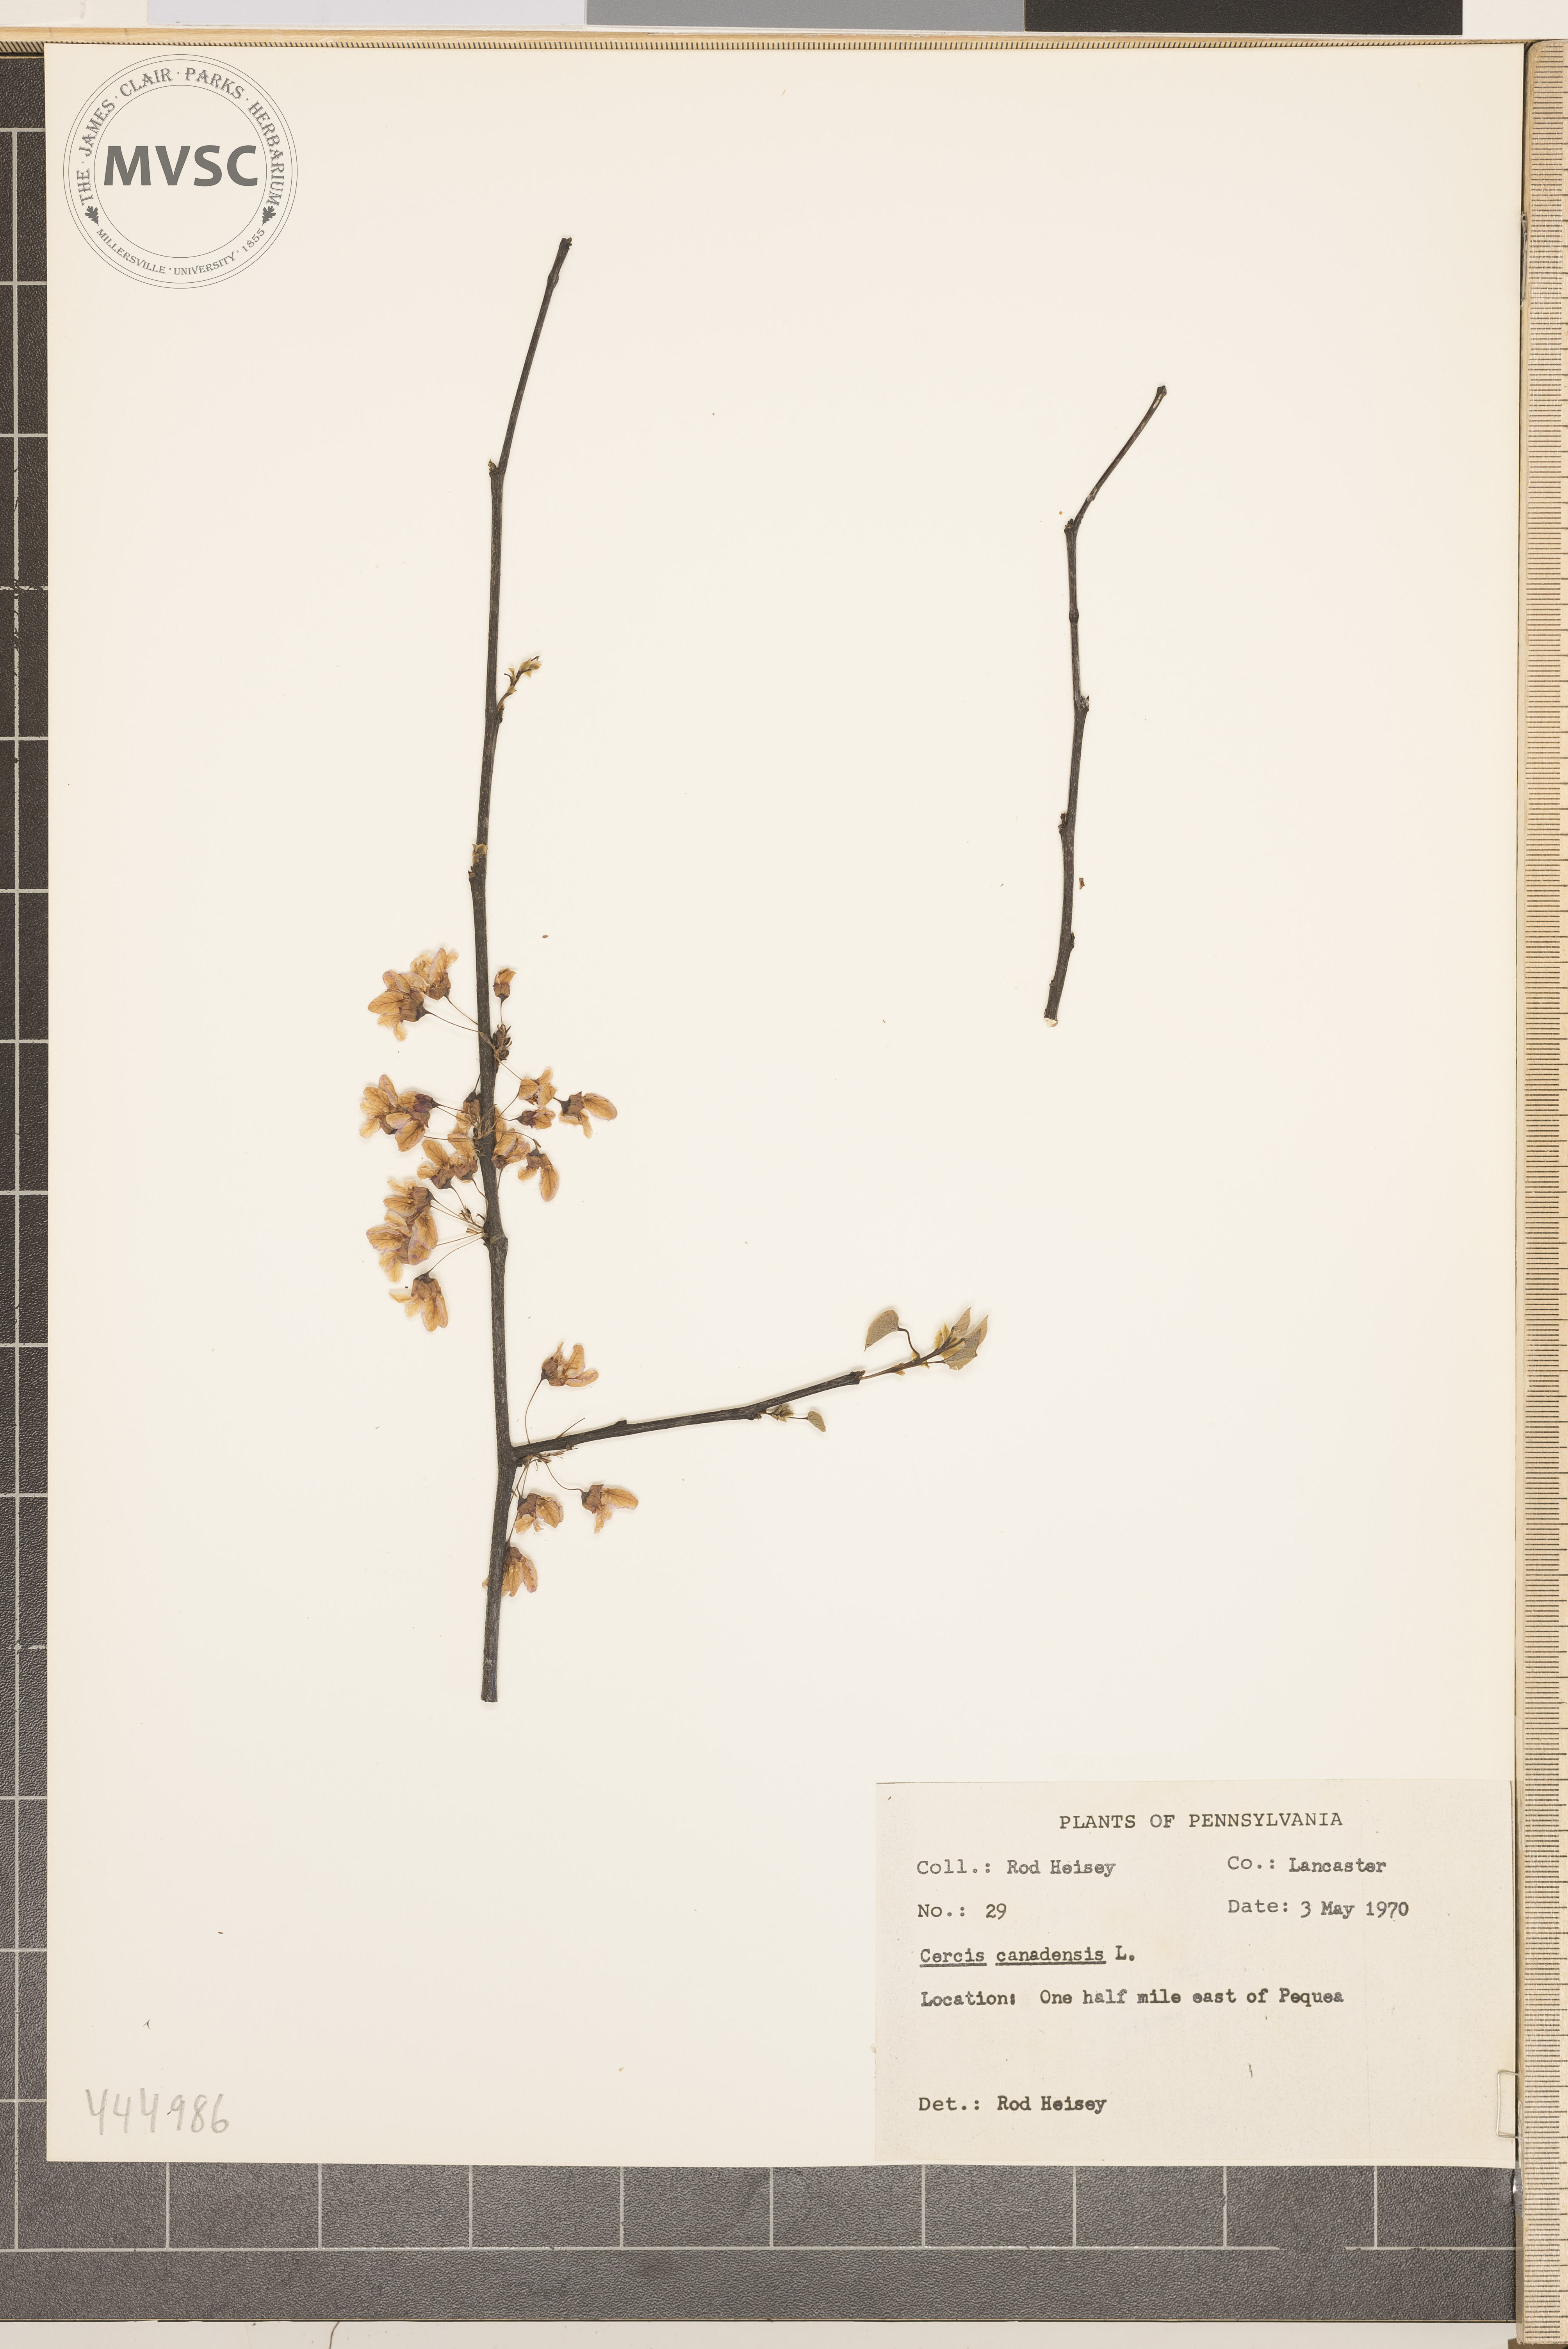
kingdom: Plantae
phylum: Tracheophyta
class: Magnoliopsida
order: Fabales
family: Fabaceae
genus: Cercis
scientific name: Cercis canadensis
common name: Eastern redbud
